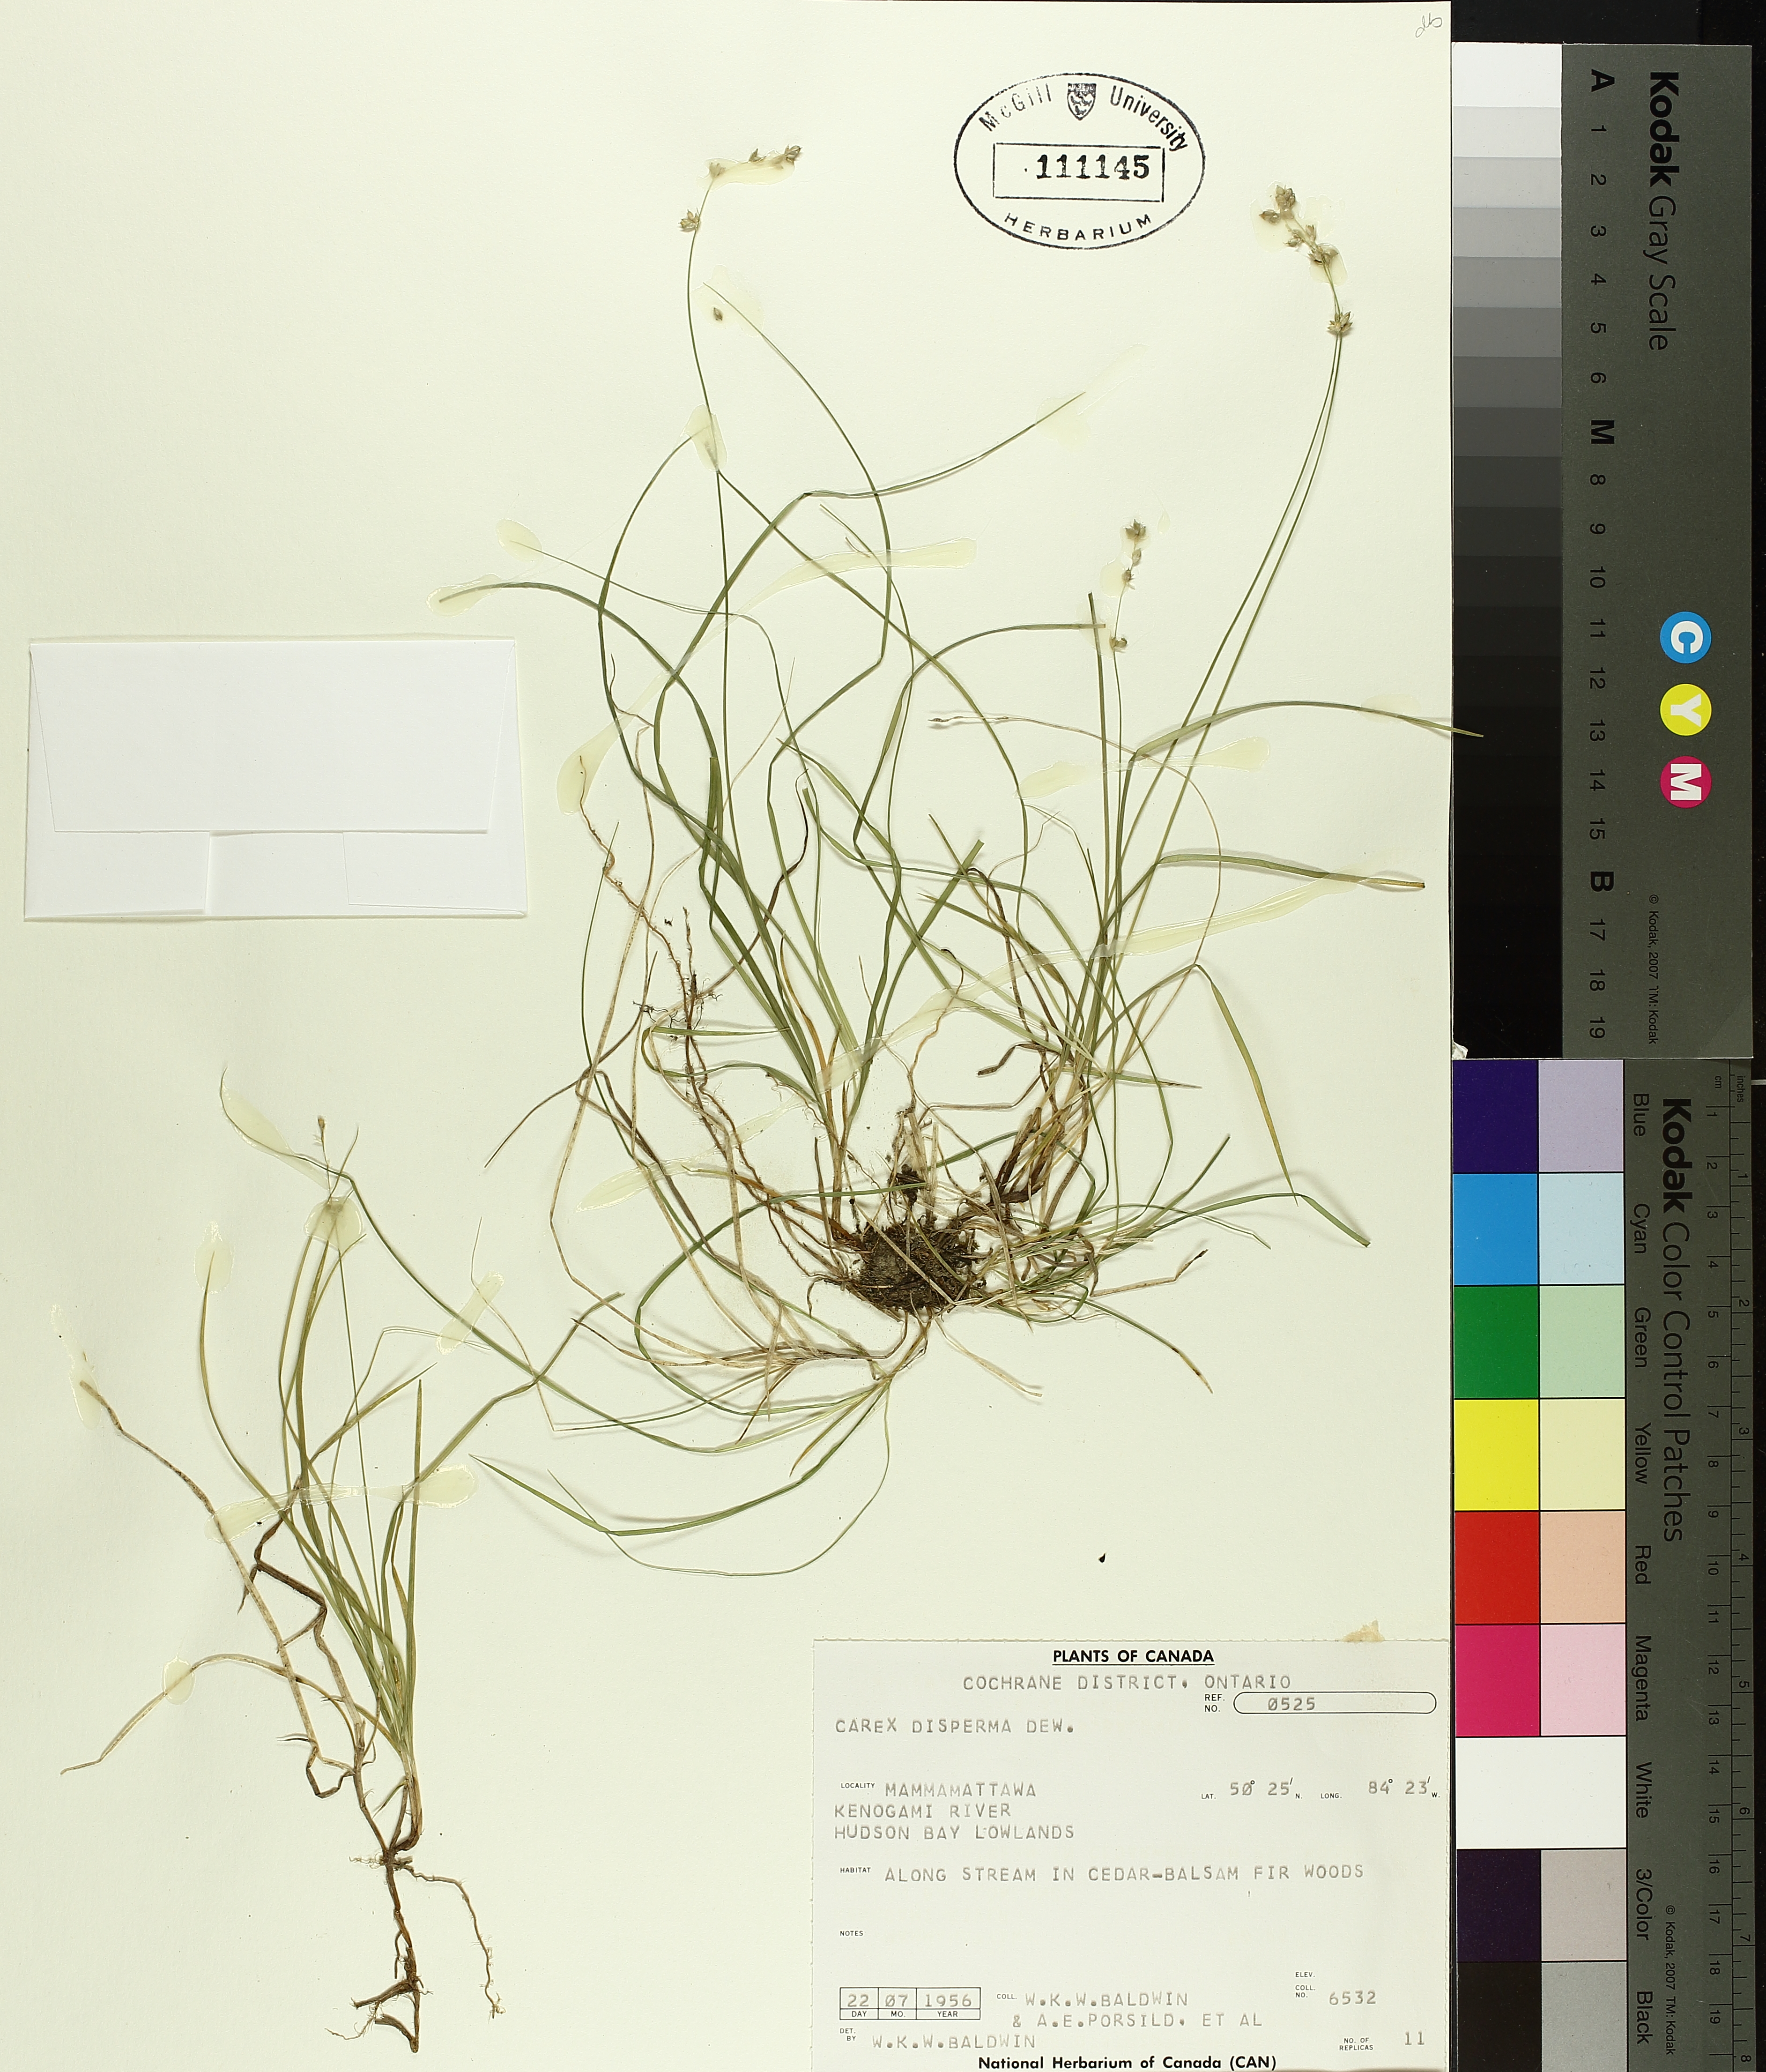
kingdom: Plantae
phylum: Tracheophyta
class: Liliopsida
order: Poales
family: Cyperaceae
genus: Carex
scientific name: Carex disperma
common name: Short-leaved sedge
